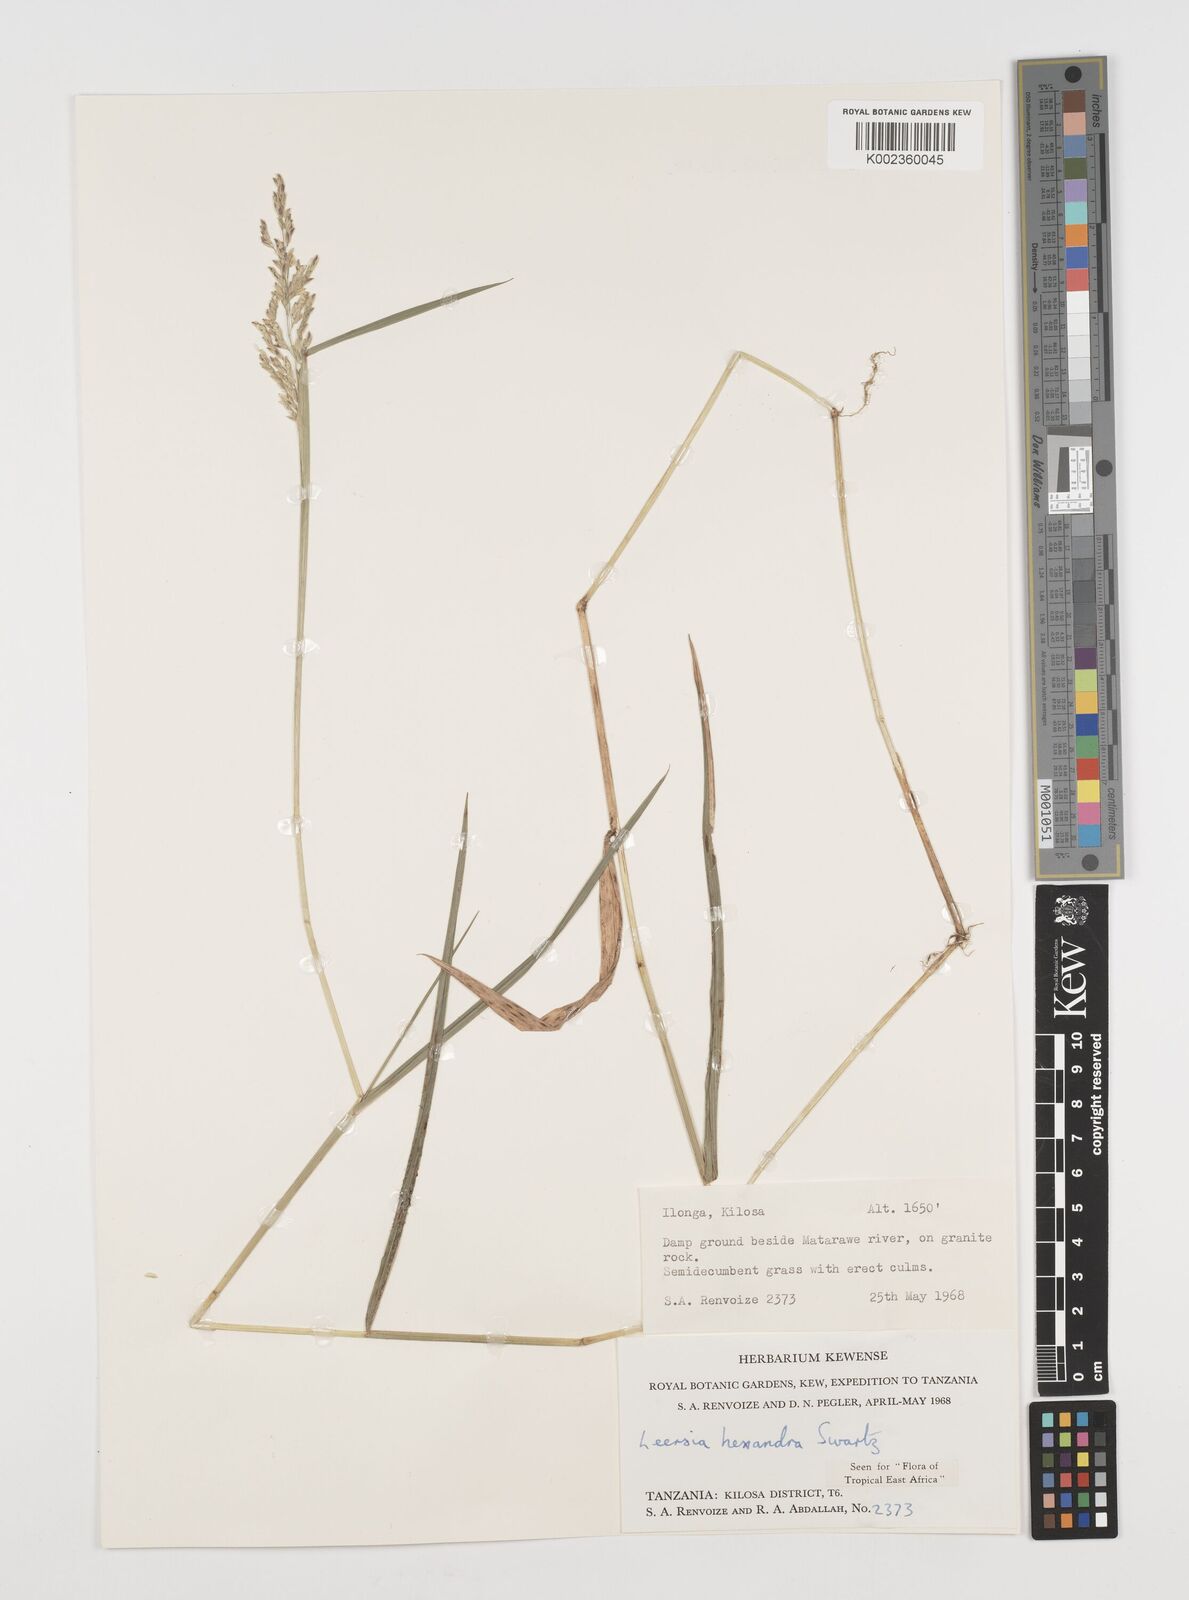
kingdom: Plantae
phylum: Tracheophyta
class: Liliopsida
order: Poales
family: Poaceae
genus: Leersia
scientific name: Leersia hexandra
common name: Southern cut grass
